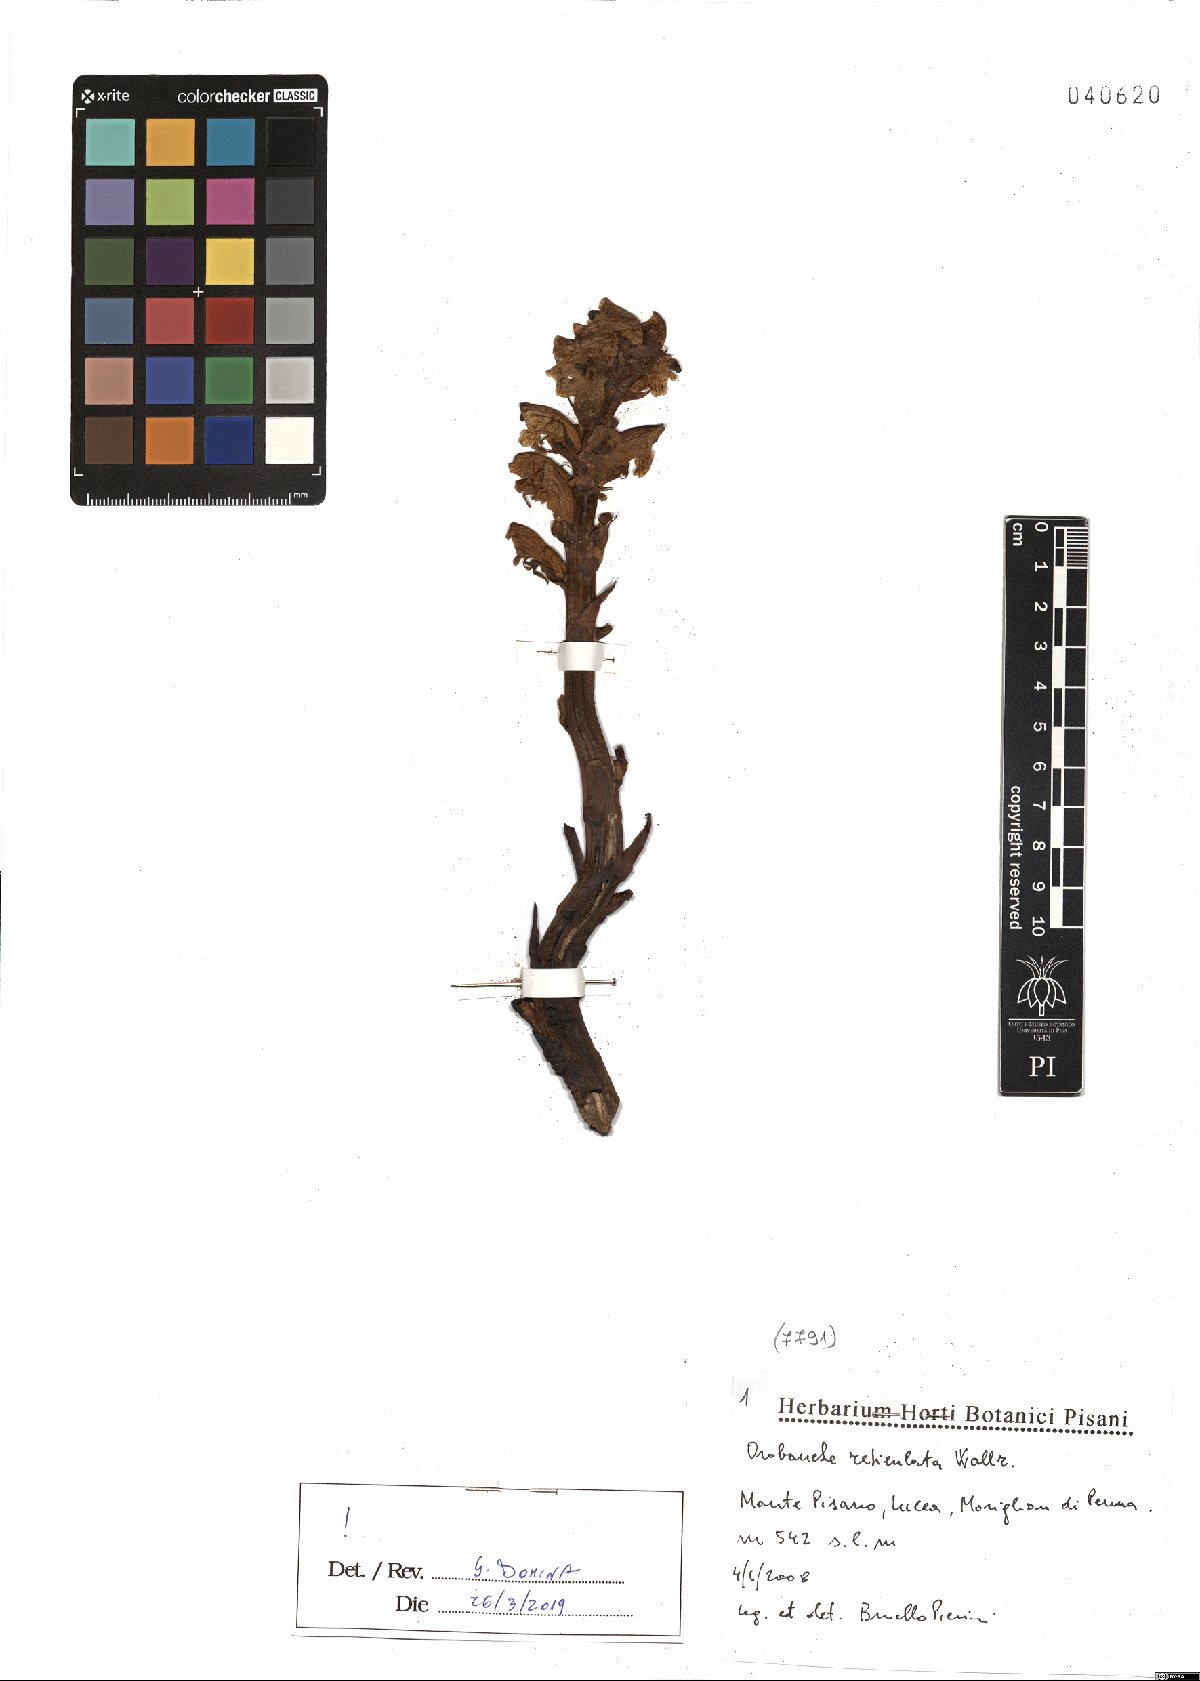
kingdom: Plantae
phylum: Tracheophyta
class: Magnoliopsida
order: Lamiales
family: Orobanchaceae
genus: Orobanche
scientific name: Orobanche reticulata
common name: Thistle broomrape
